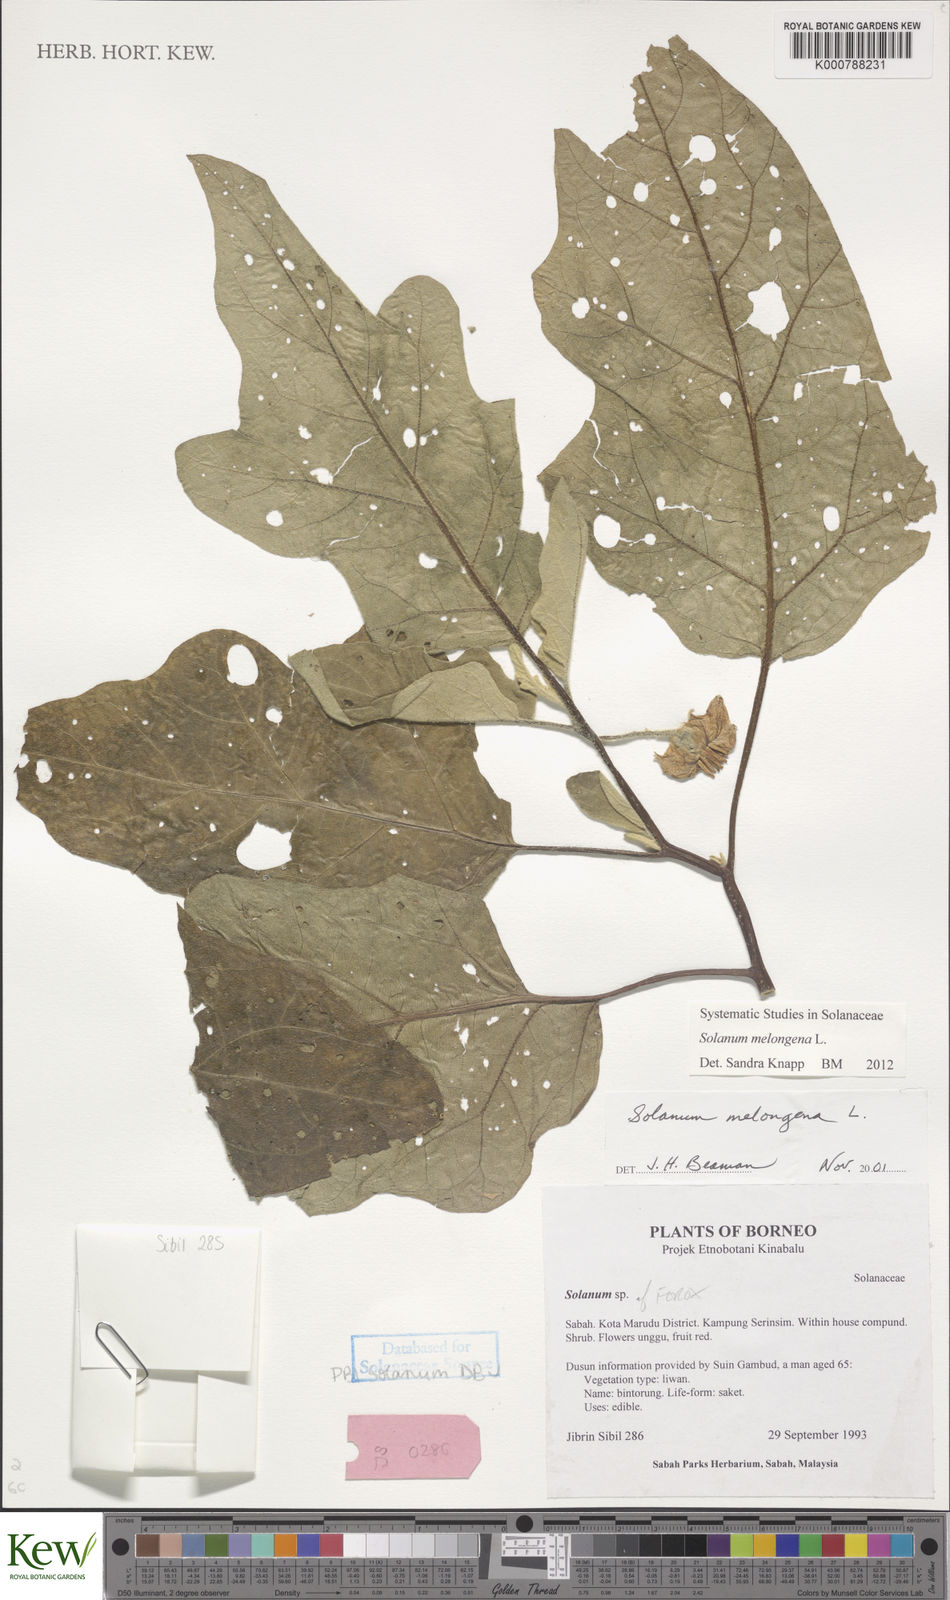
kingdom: Plantae
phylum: Tracheophyta
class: Magnoliopsida
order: Solanales
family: Solanaceae
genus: Solanum
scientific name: Solanum melongena
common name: Eggplant
